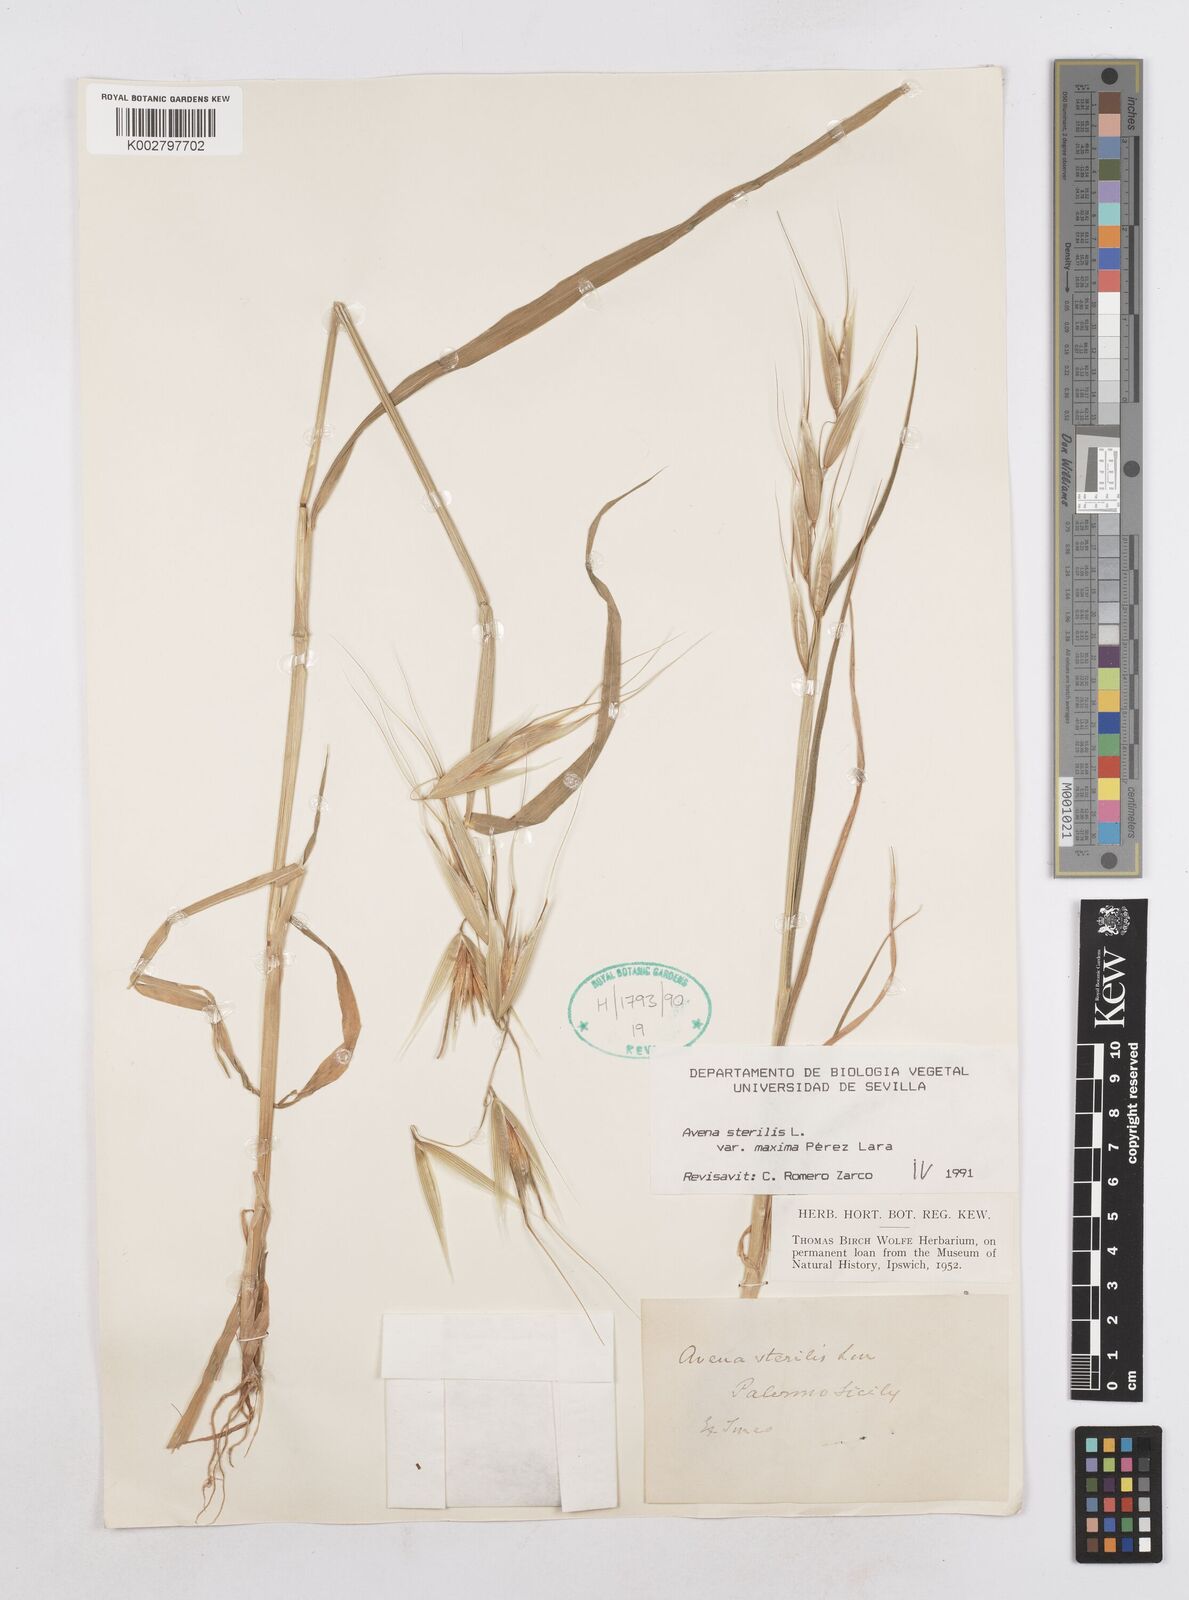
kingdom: Plantae
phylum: Tracheophyta
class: Liliopsida
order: Poales
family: Poaceae
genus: Avena
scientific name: Avena sterilis
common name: Animated oat
